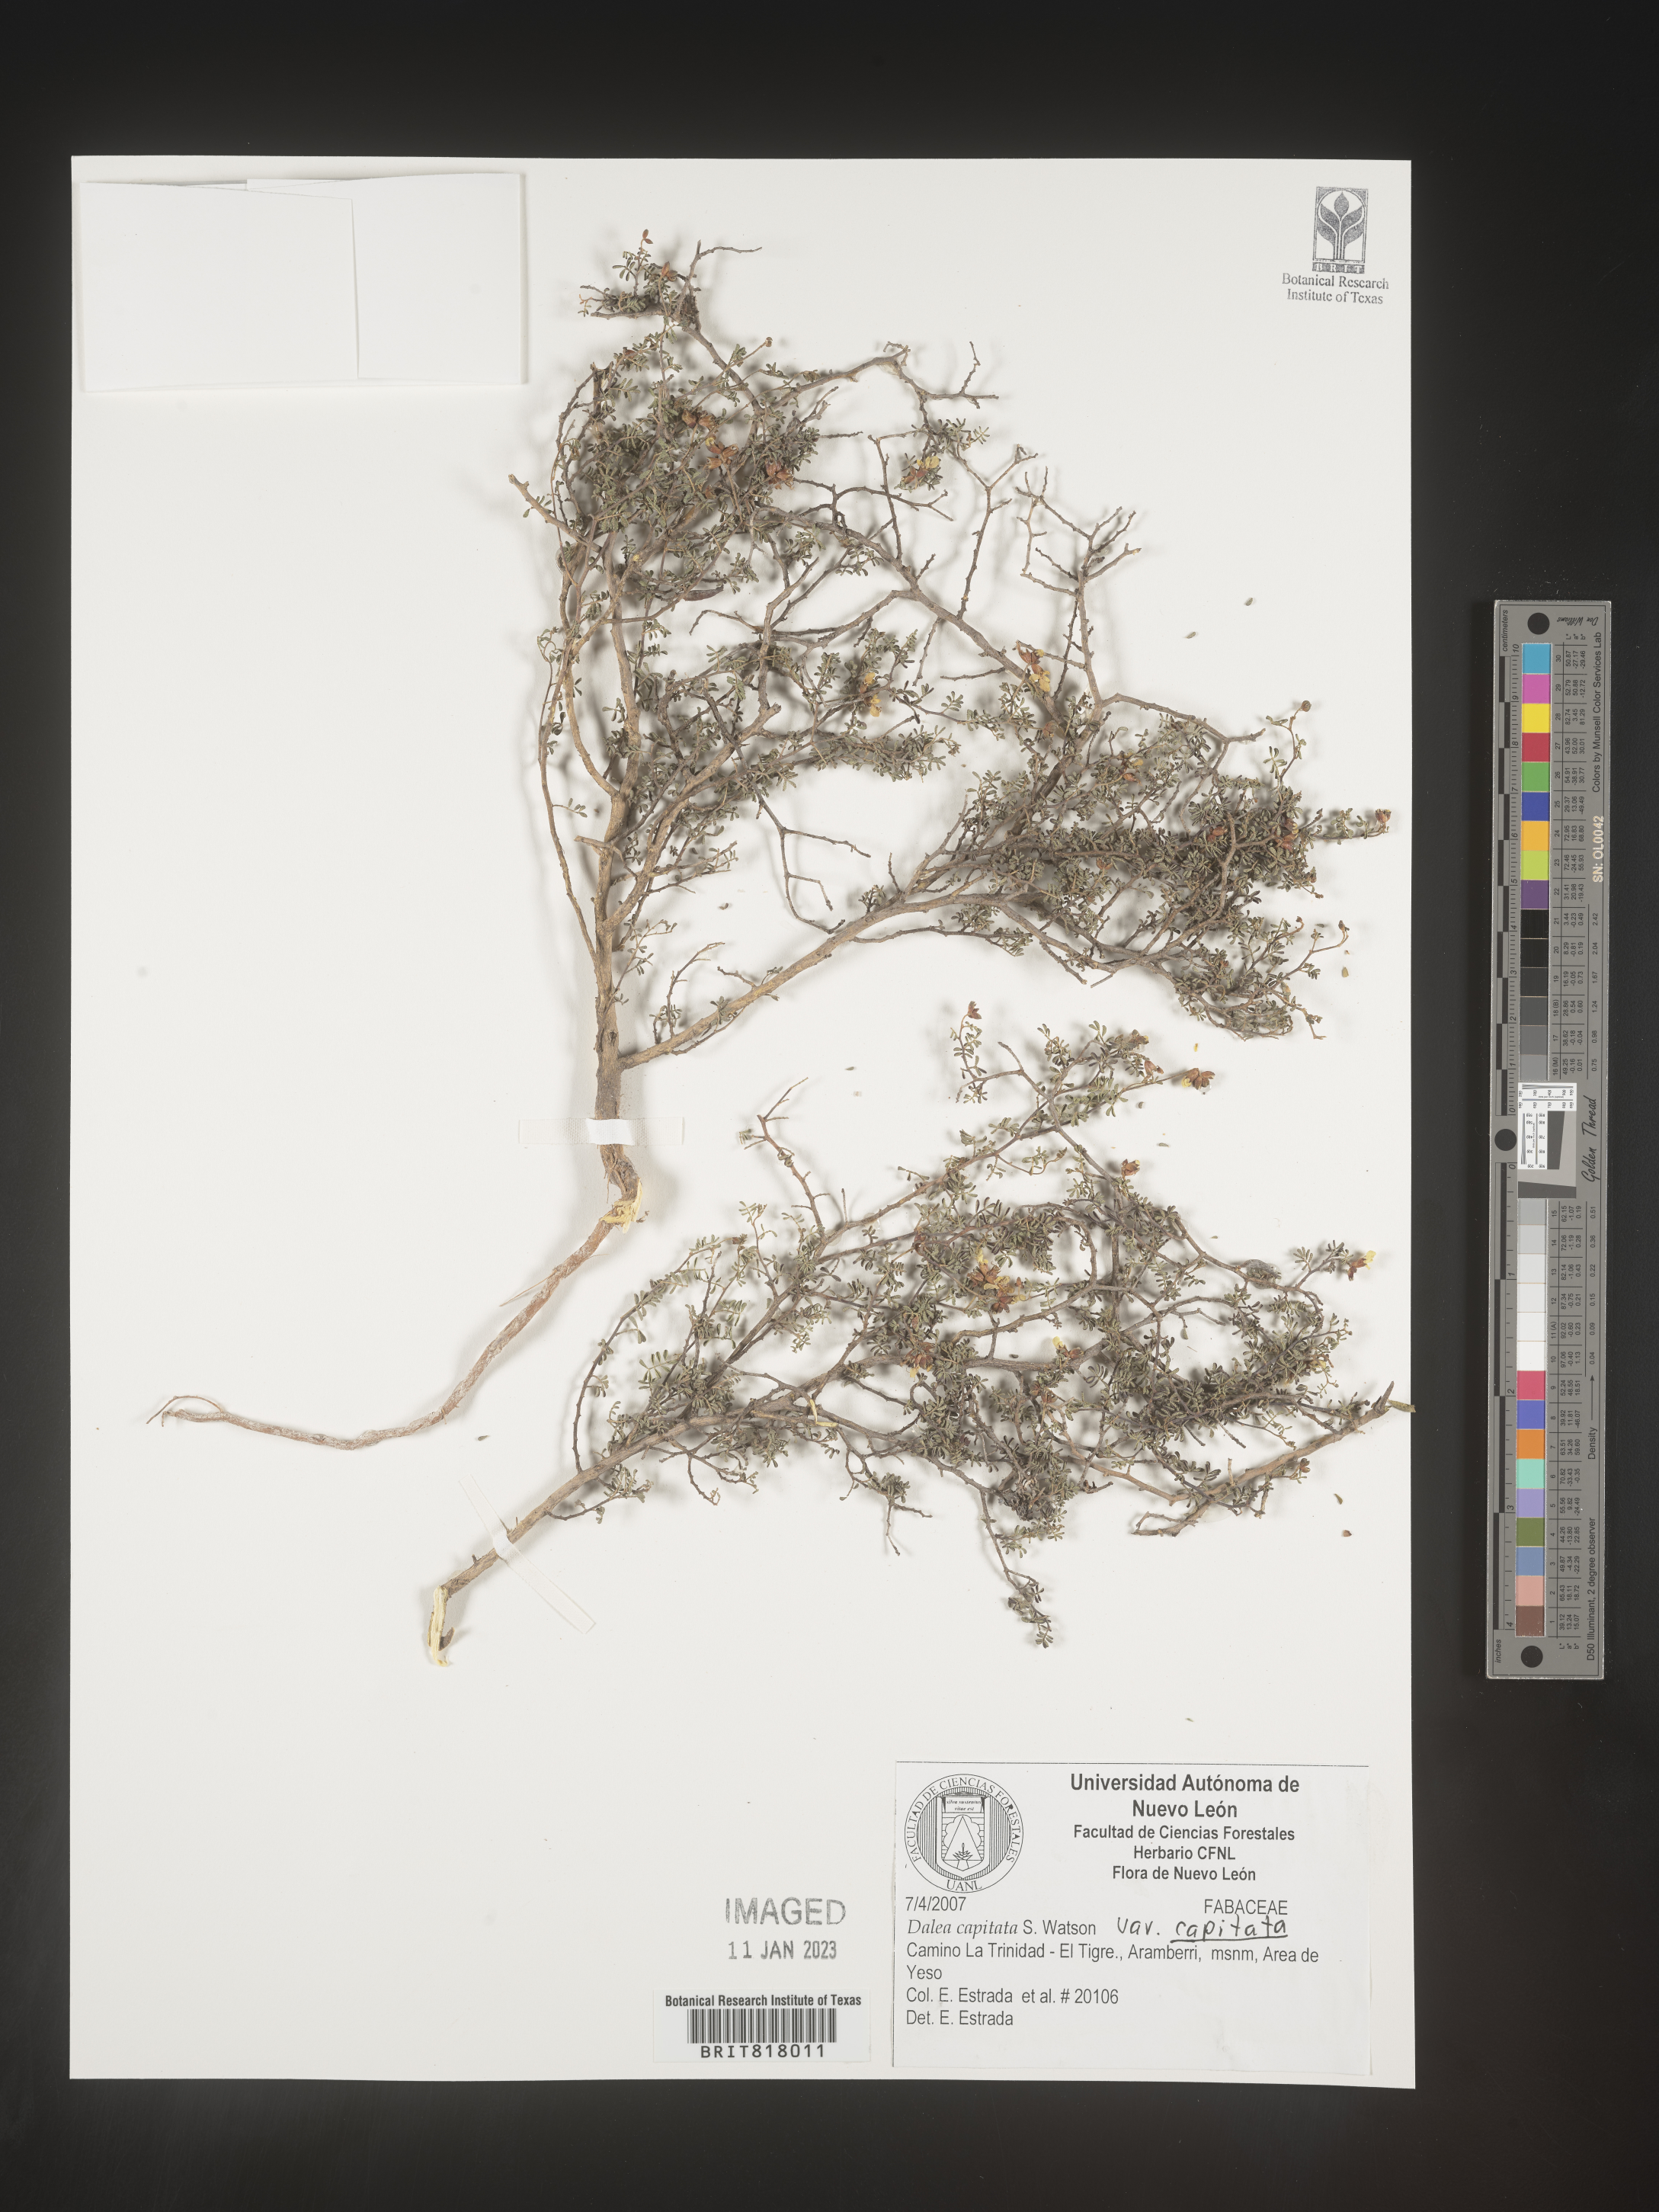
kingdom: Plantae
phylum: Tracheophyta
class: Magnoliopsida
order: Fabales
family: Fabaceae
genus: Dalea
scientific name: Dalea
